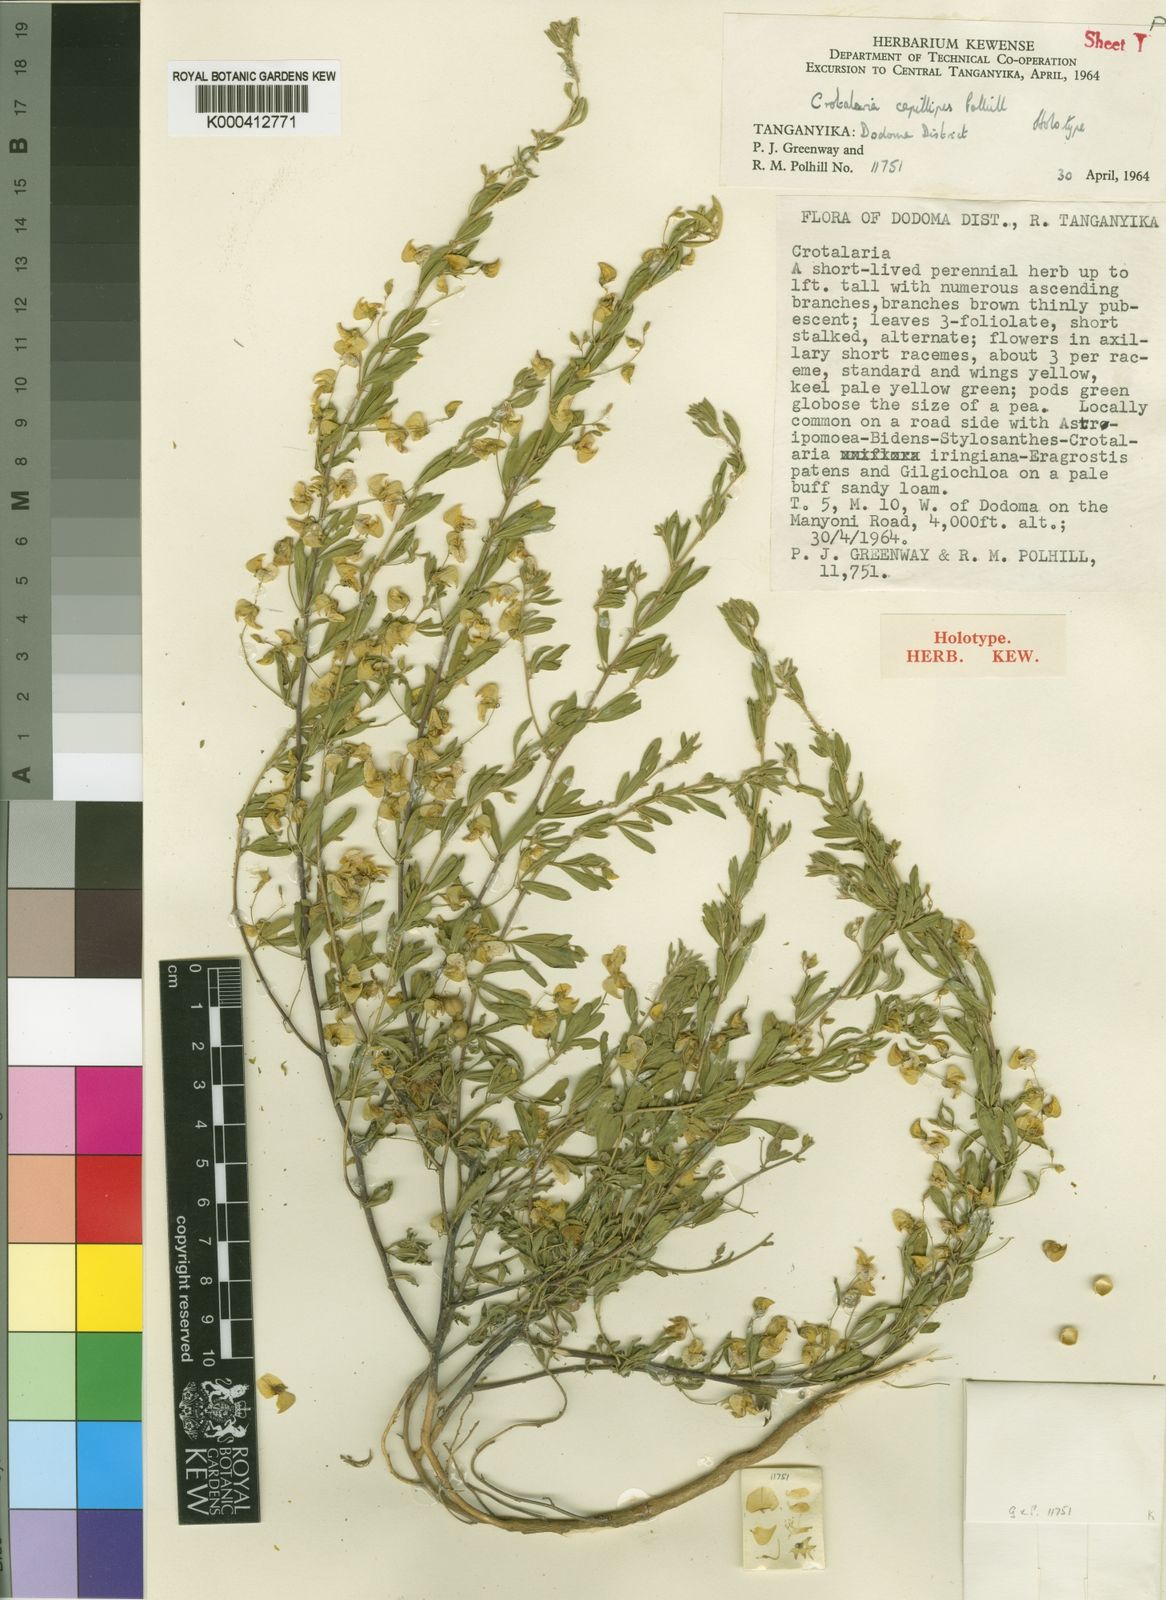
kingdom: Plantae
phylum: Tracheophyta
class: Magnoliopsida
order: Fabales
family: Fabaceae
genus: Crotalaria
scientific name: Crotalaria capillipes
